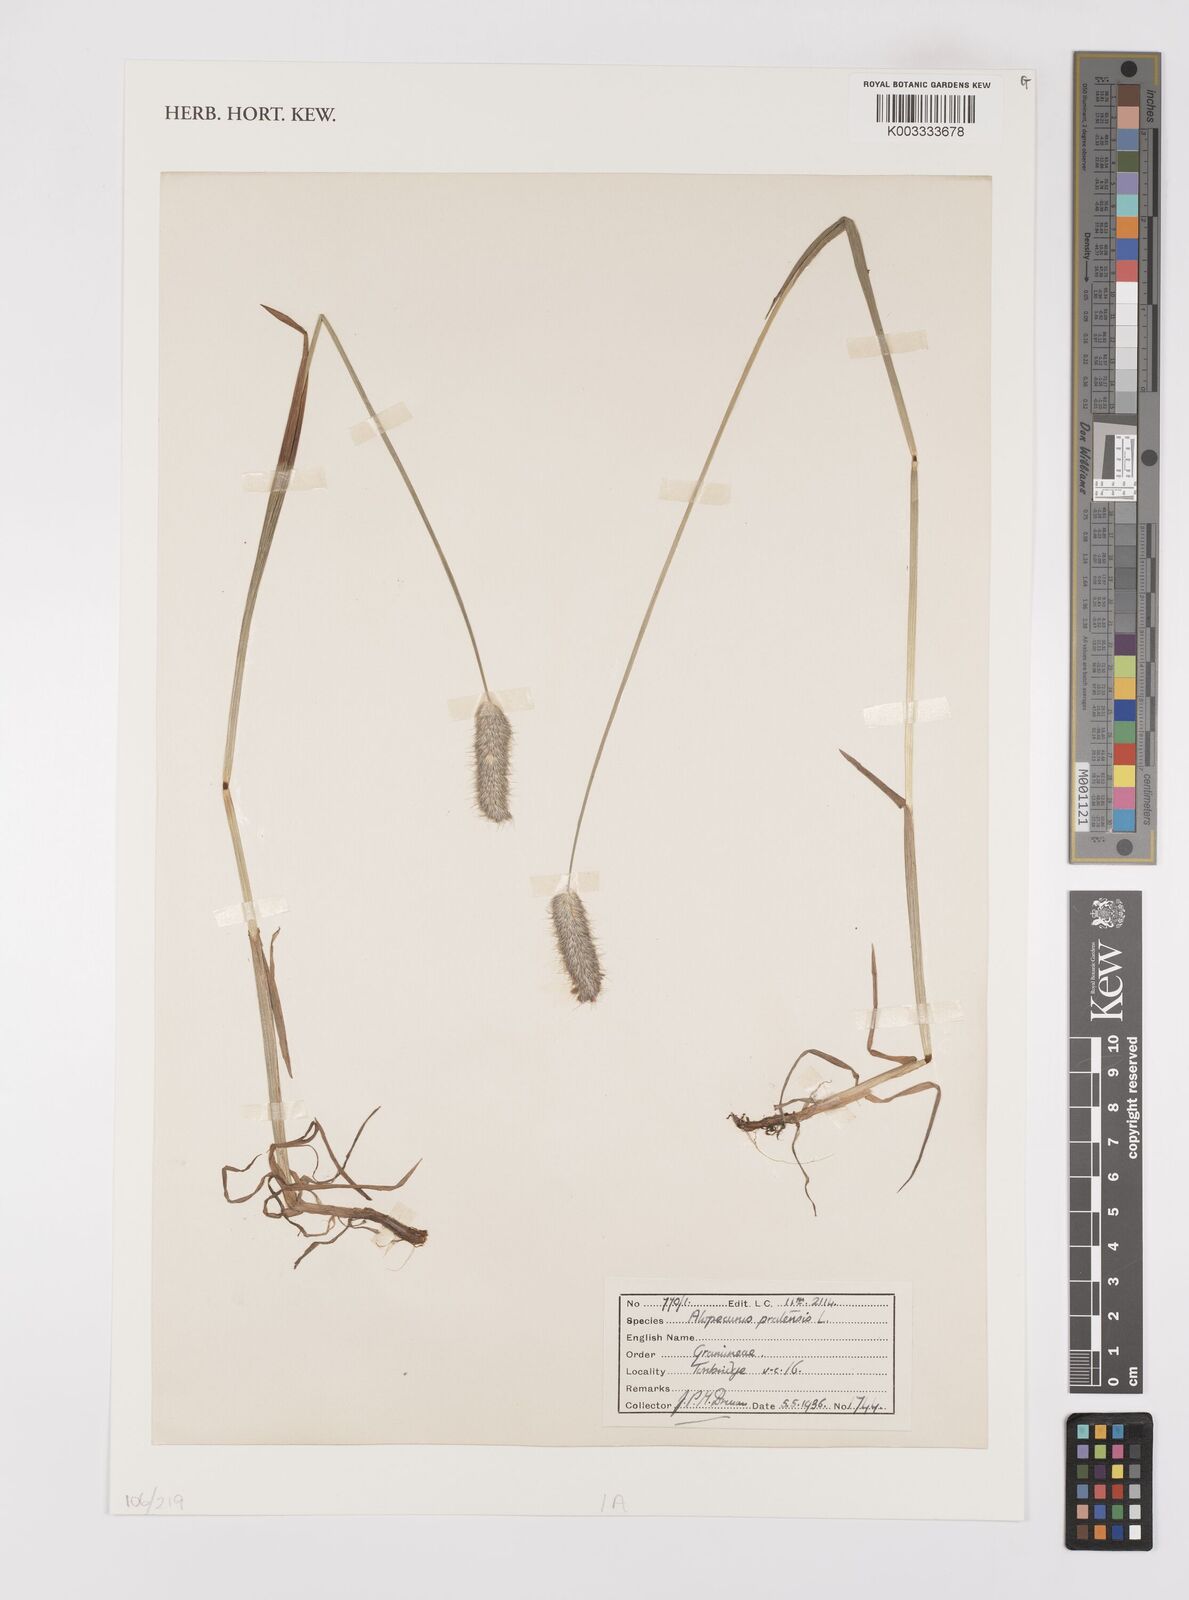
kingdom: Plantae
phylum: Tracheophyta
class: Liliopsida
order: Poales
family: Poaceae
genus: Alopecurus
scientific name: Alopecurus pratensis
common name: Meadow foxtail
